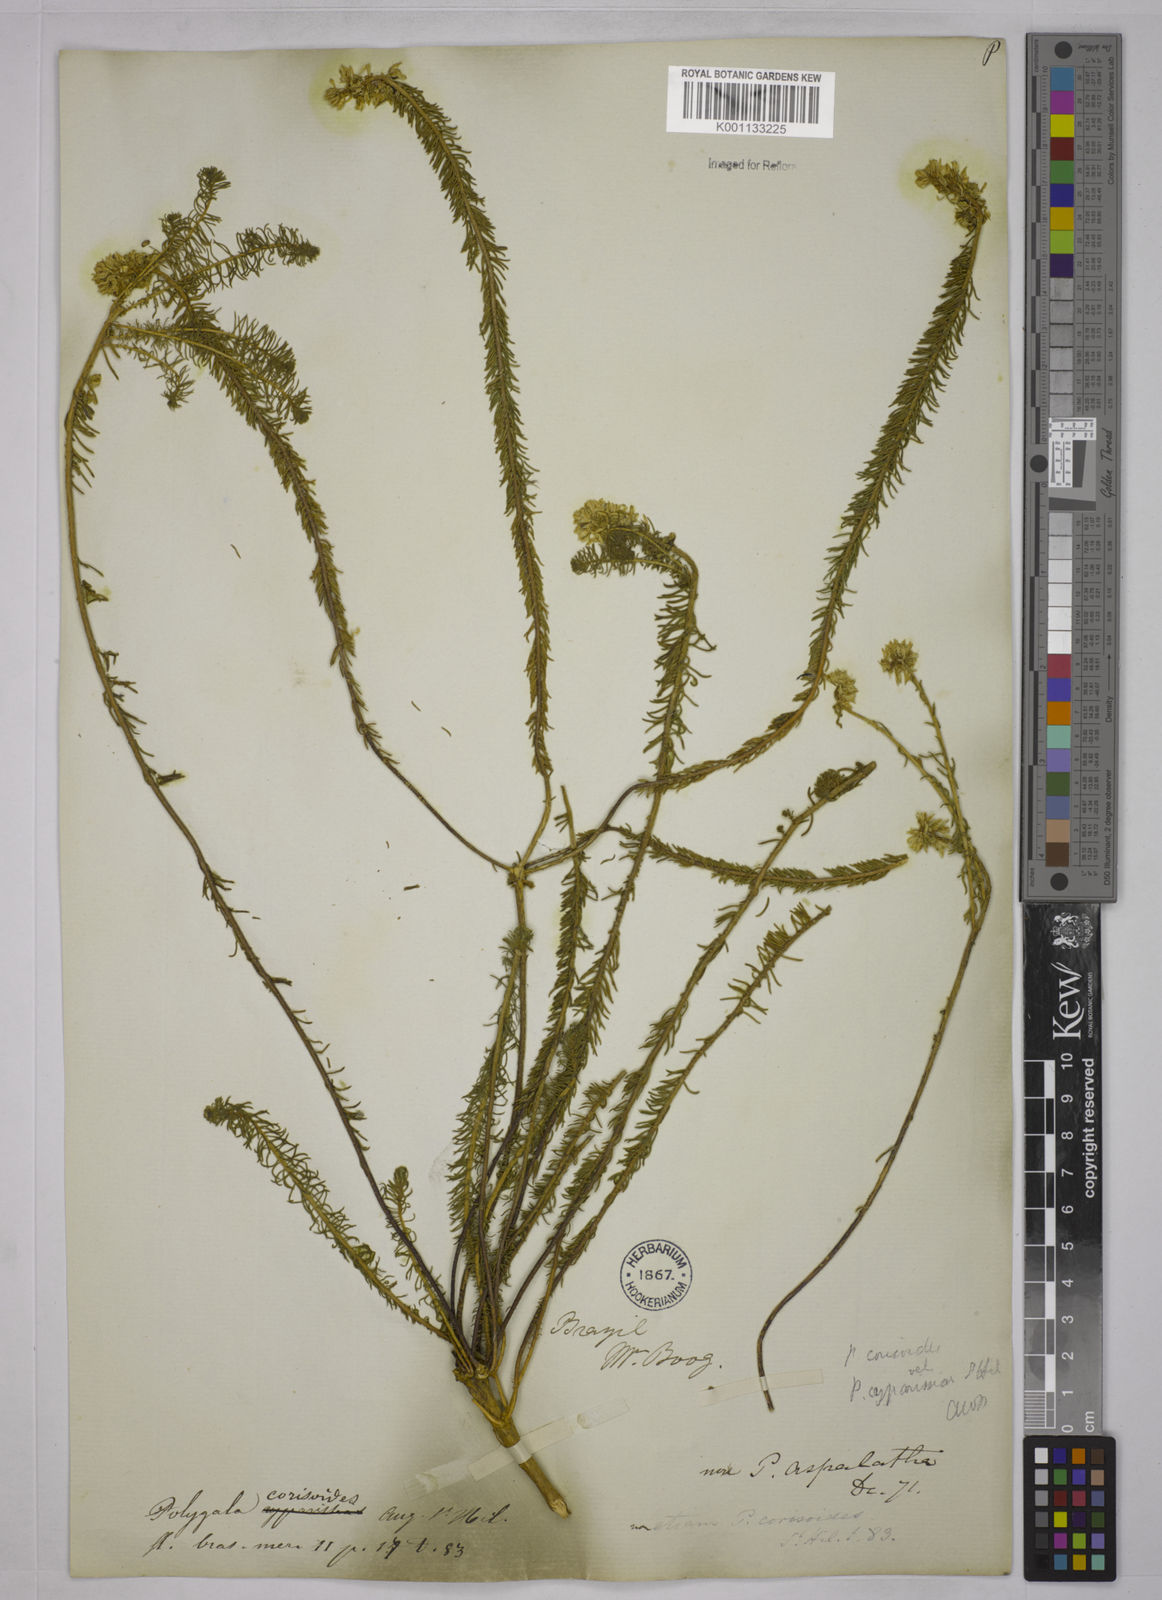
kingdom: Plantae
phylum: Tracheophyta
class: Magnoliopsida
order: Fabales
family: Polygalaceae
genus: Polygala
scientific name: Polygala cyparissias
